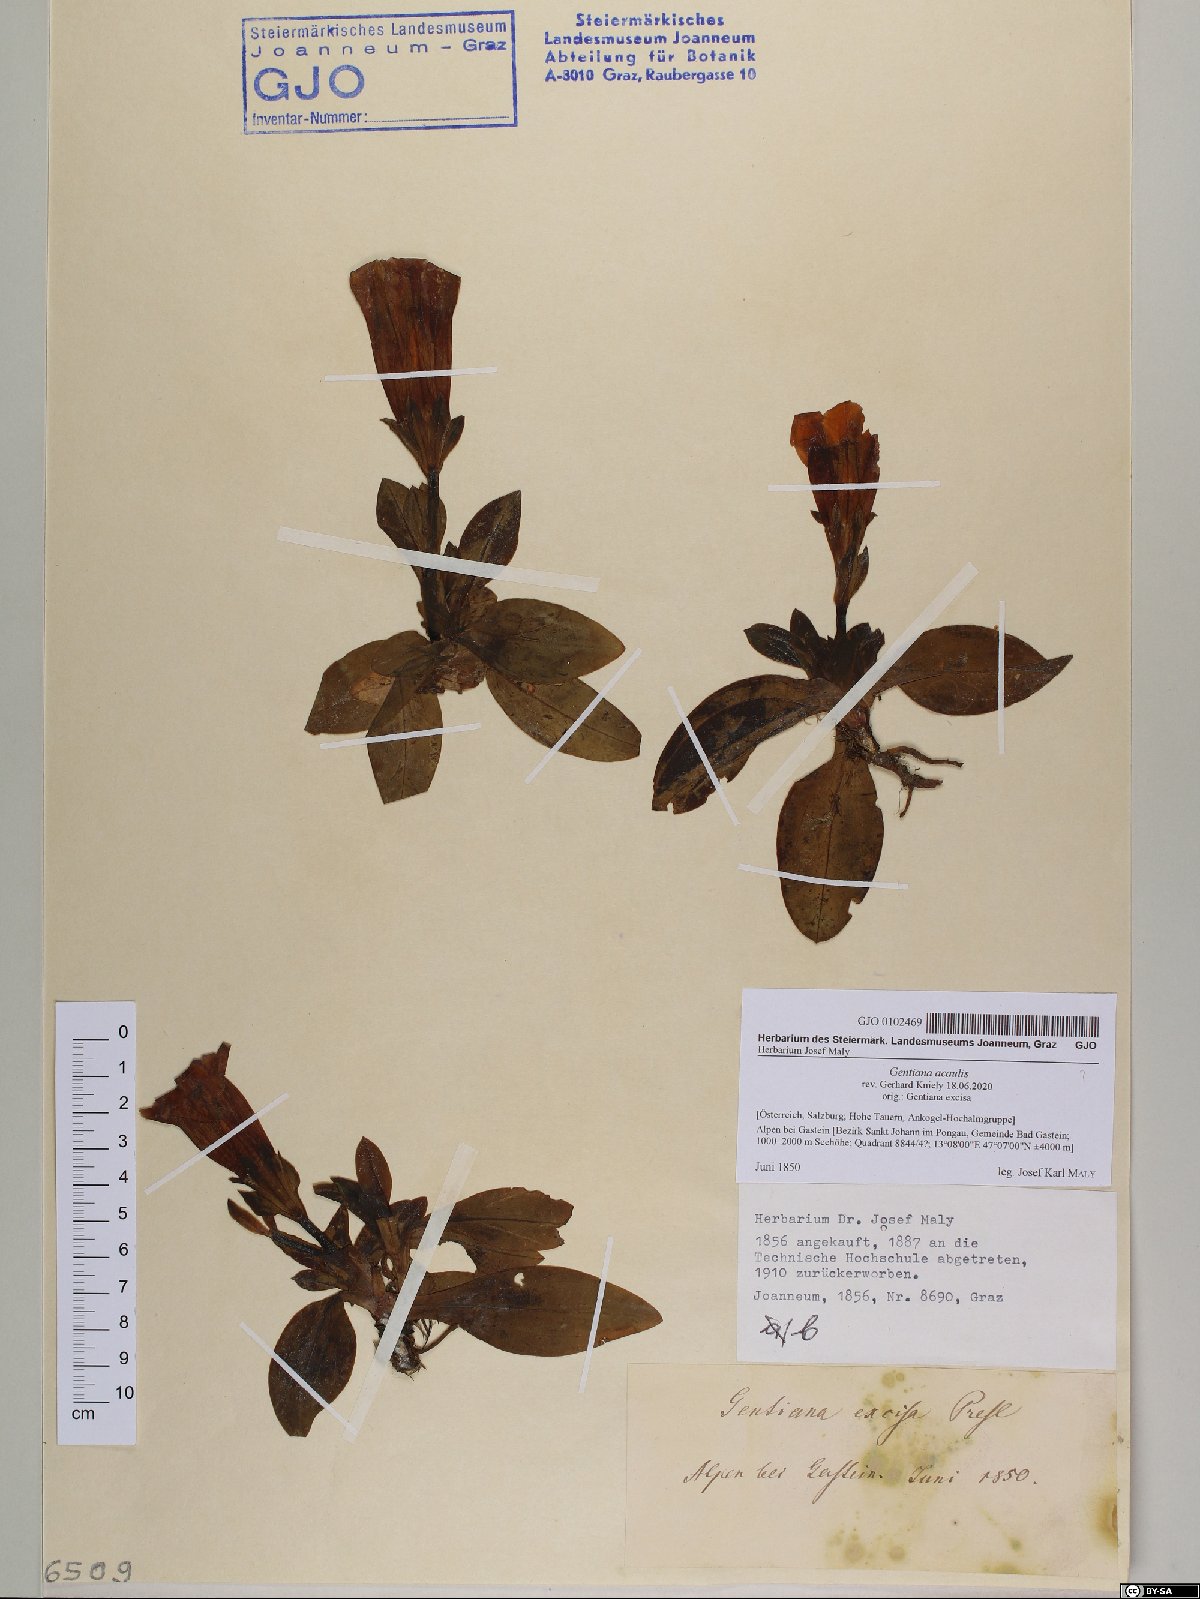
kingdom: Plantae
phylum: Tracheophyta
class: Magnoliopsida
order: Gentianales
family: Gentianaceae
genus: Gentiana
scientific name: Gentiana acaulis
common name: Trumpet gentian
